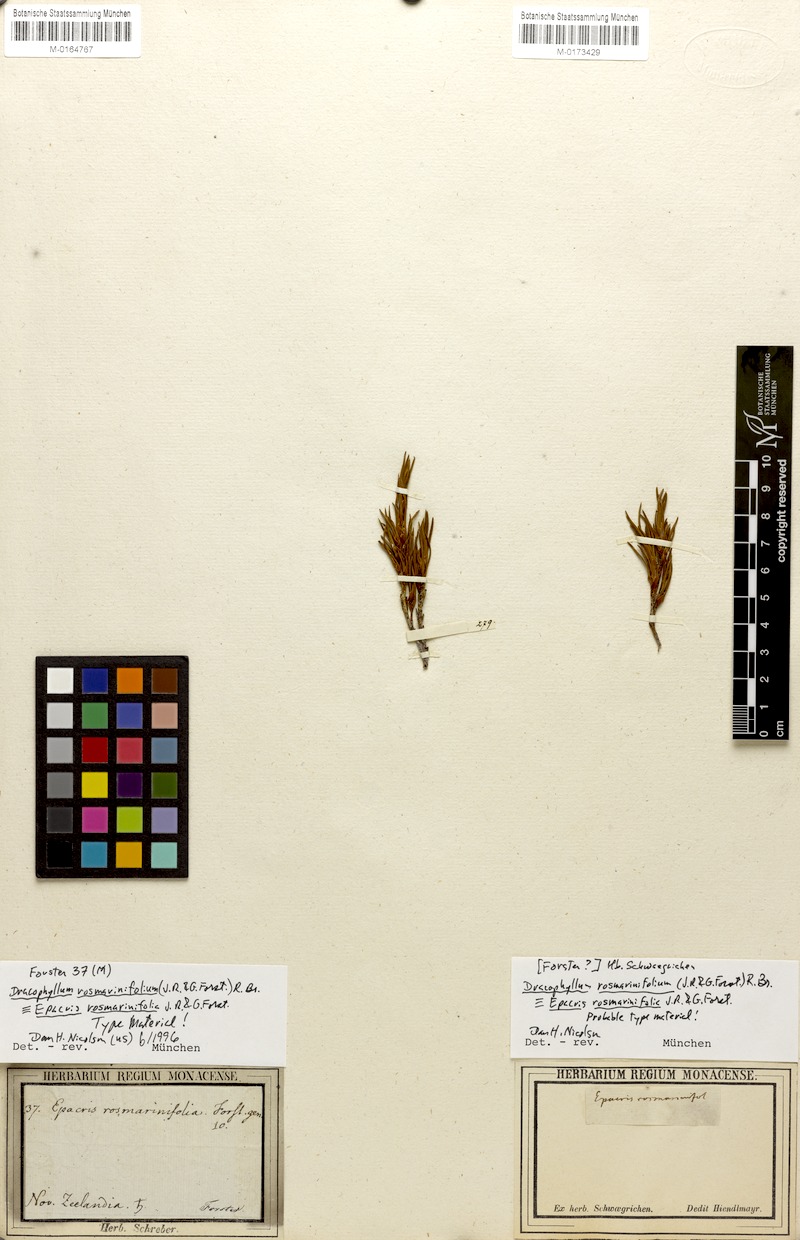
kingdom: Plantae
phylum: Tracheophyta
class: Magnoliopsida
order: Ericales
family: Ericaceae
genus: Dracophyllum
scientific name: Dracophyllum rosmarinifolium
